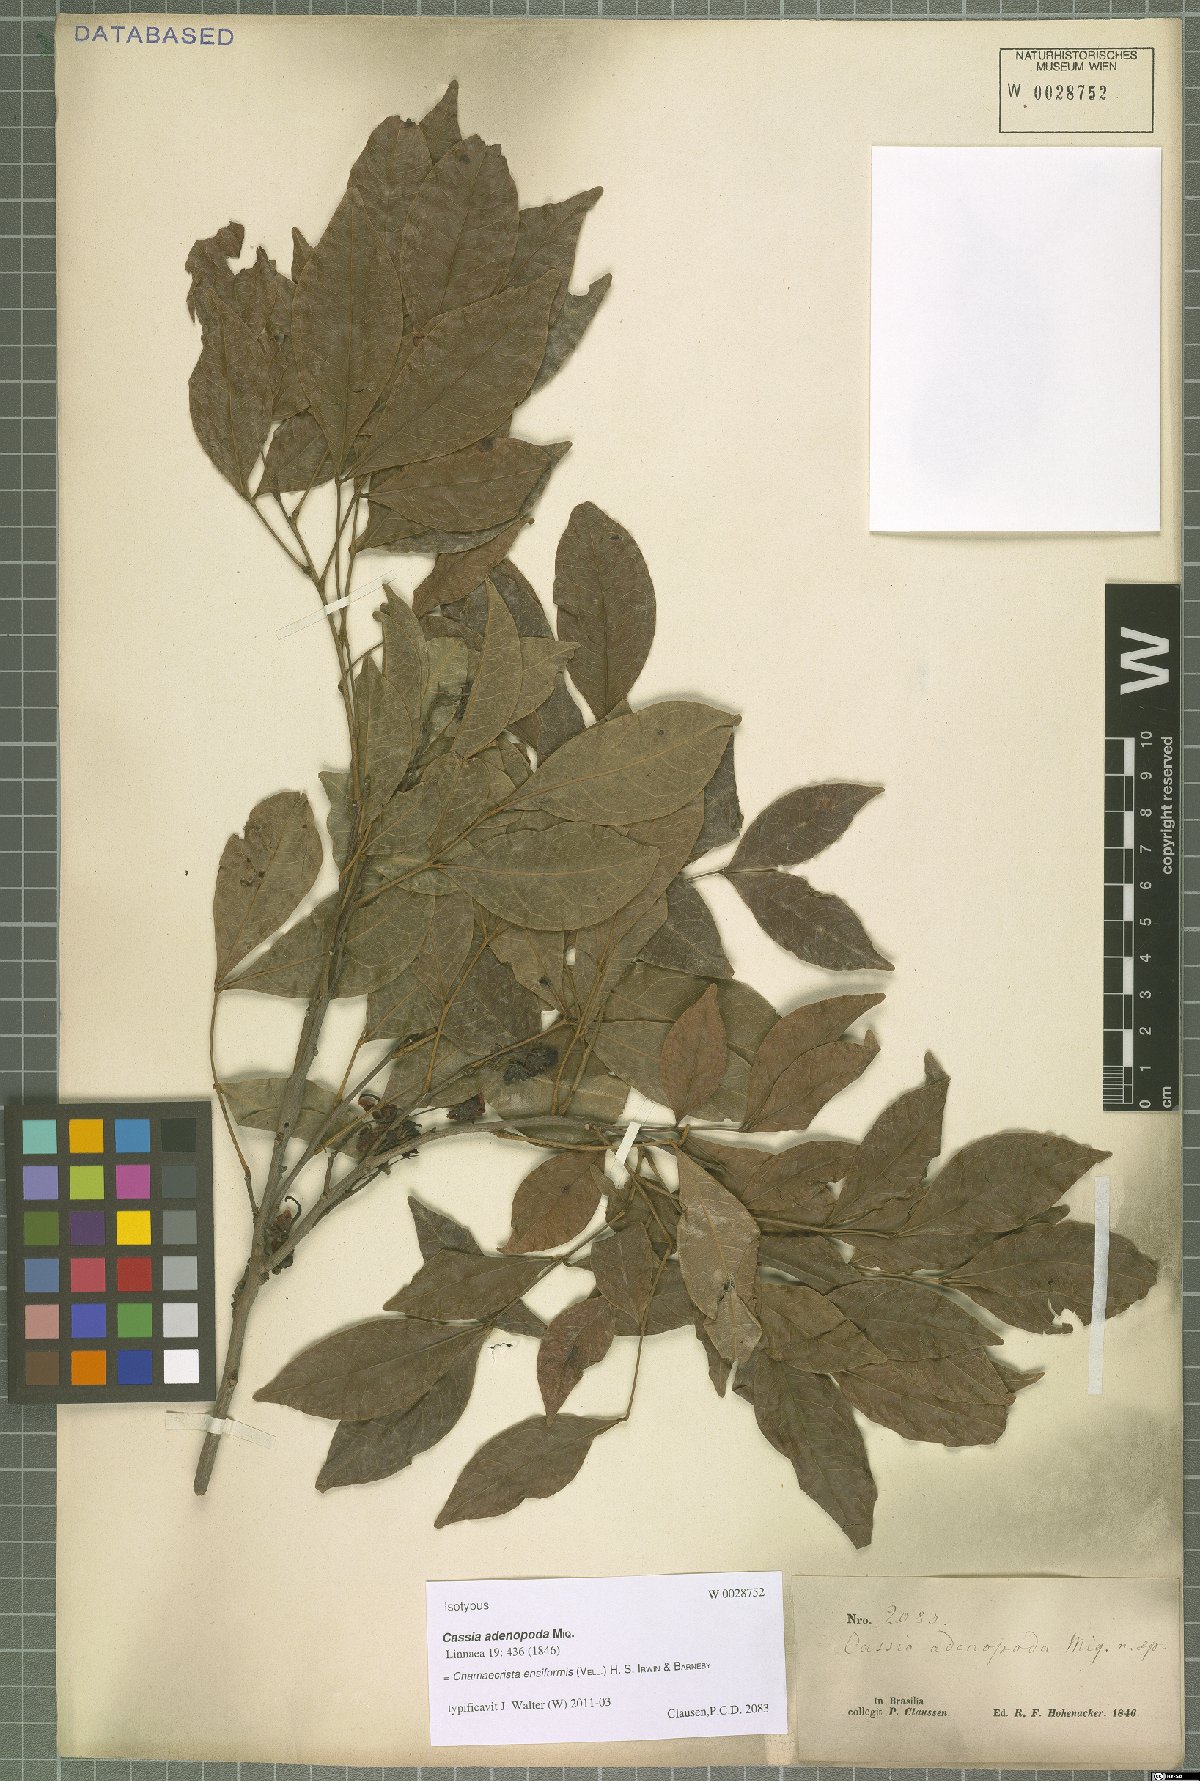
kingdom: Plantae
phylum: Tracheophyta
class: Magnoliopsida
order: Fabales
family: Fabaceae
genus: Chamaecrista
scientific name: Chamaecrista ensiformis
